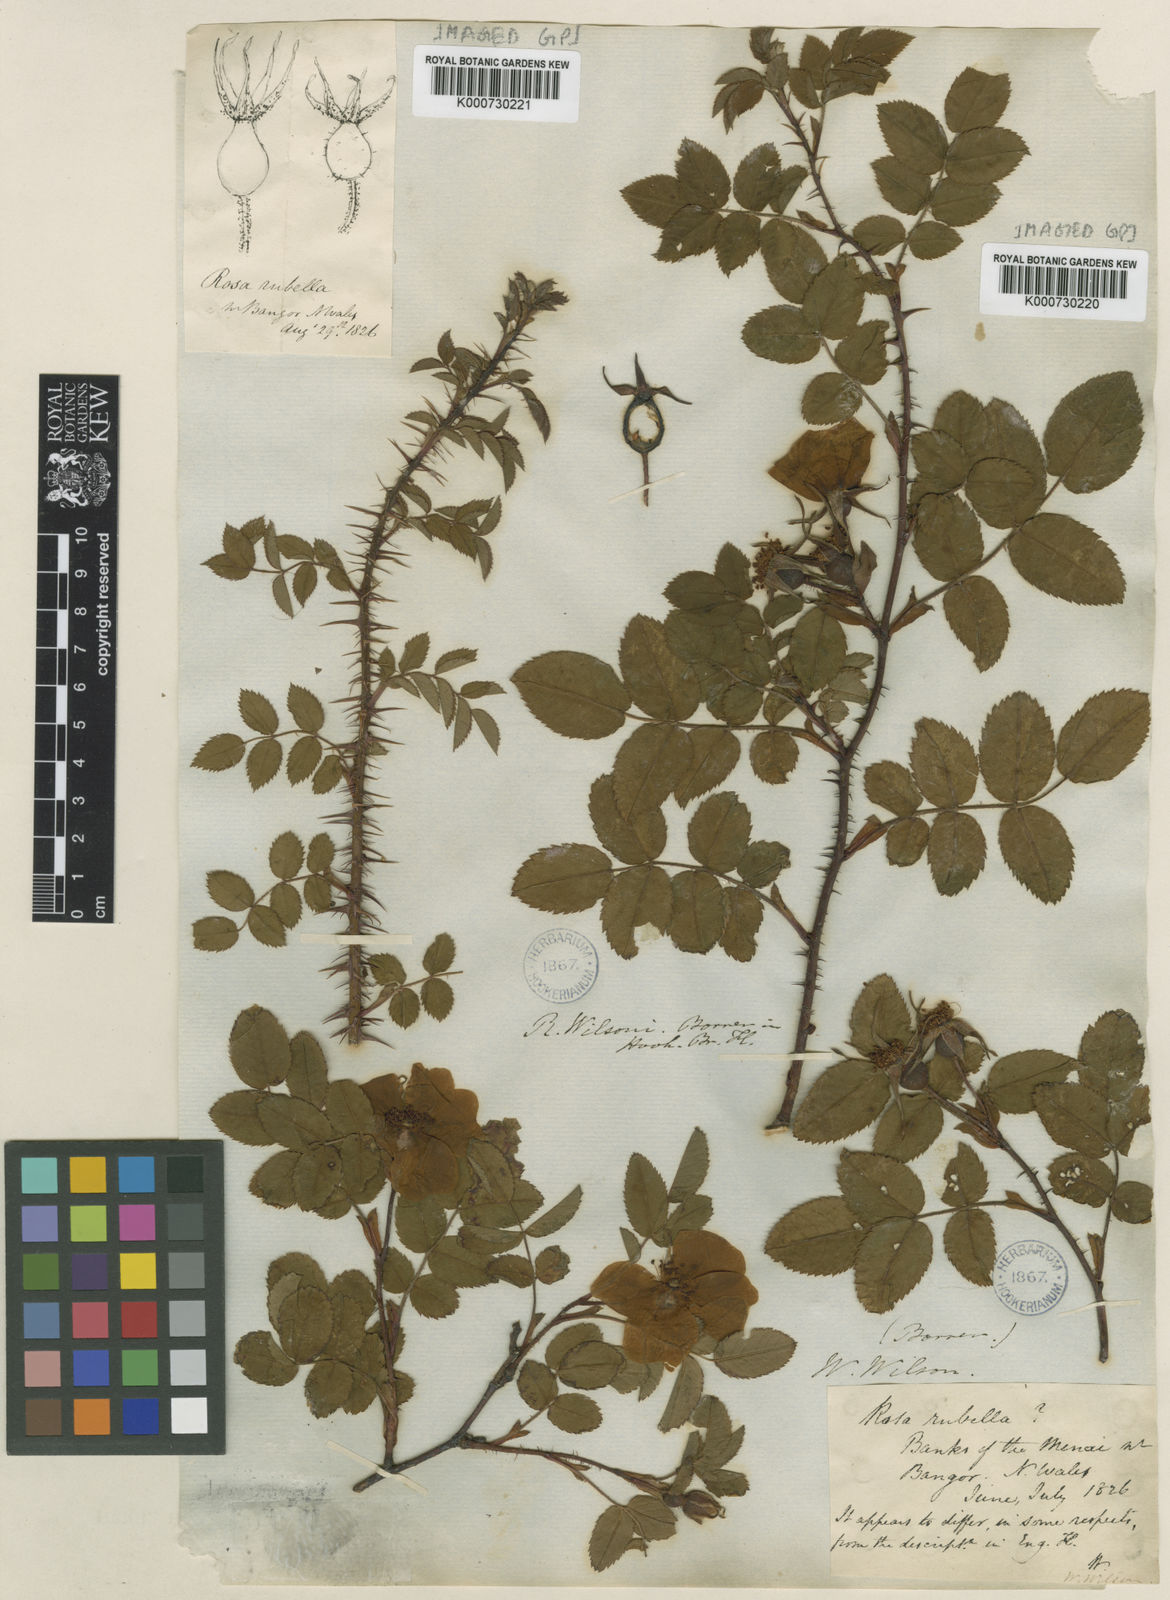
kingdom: Plantae
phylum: Tracheophyta
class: Magnoliopsida
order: Rosales
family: Rosaceae
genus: Rosa
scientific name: Rosa coronata
